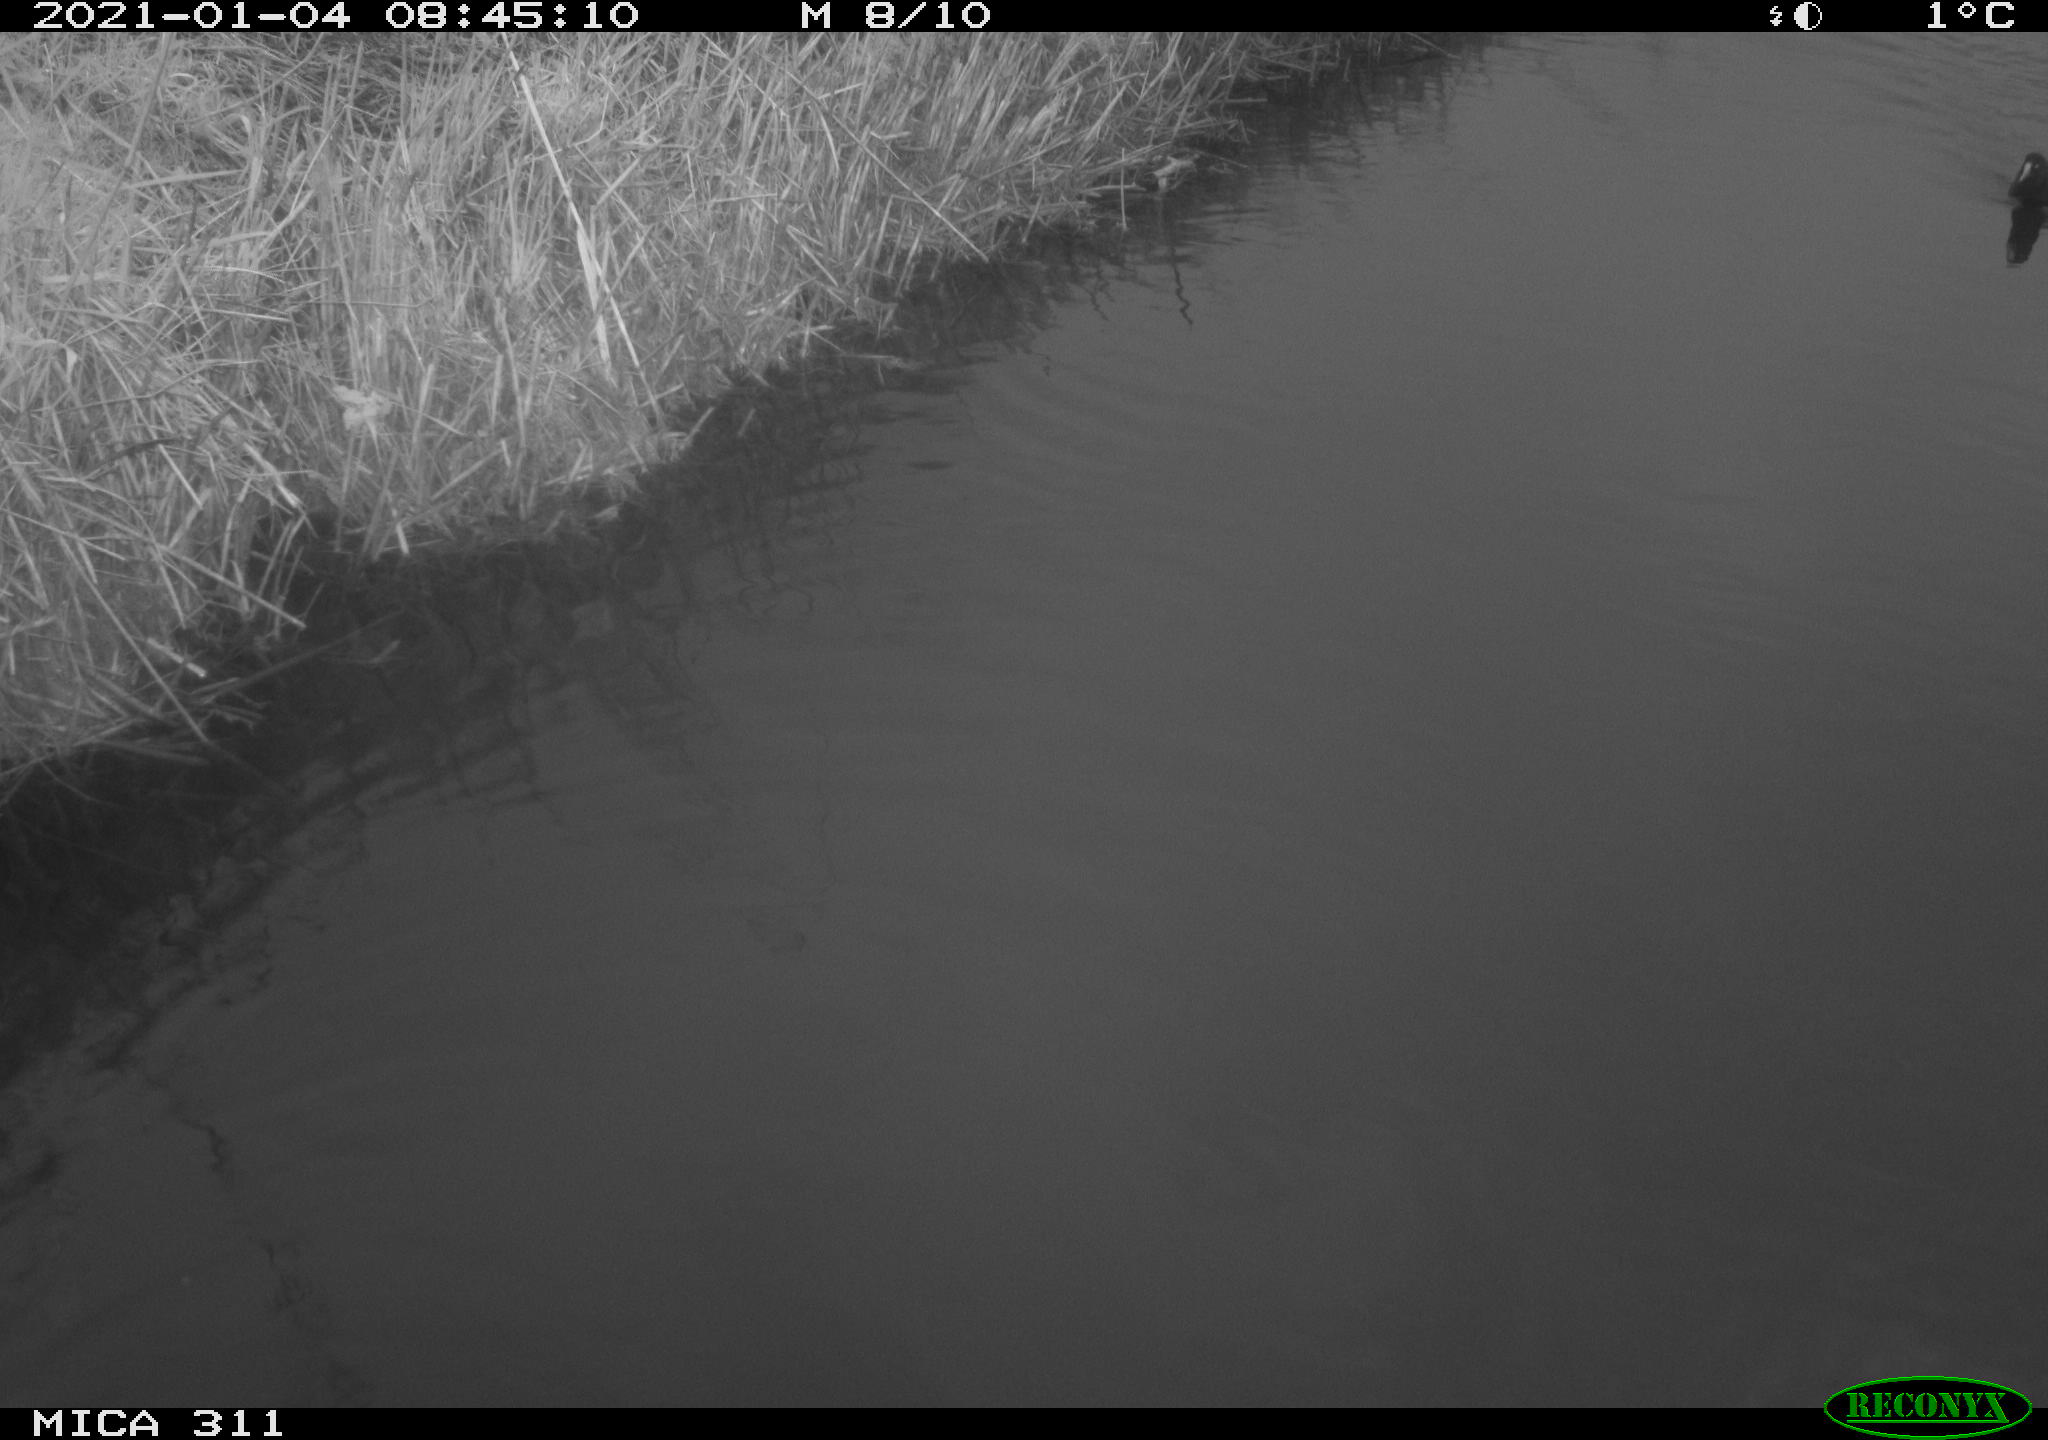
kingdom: Animalia
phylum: Chordata
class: Aves
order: Gruiformes
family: Rallidae
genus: Gallinula
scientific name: Gallinula chloropus
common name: Common moorhen
